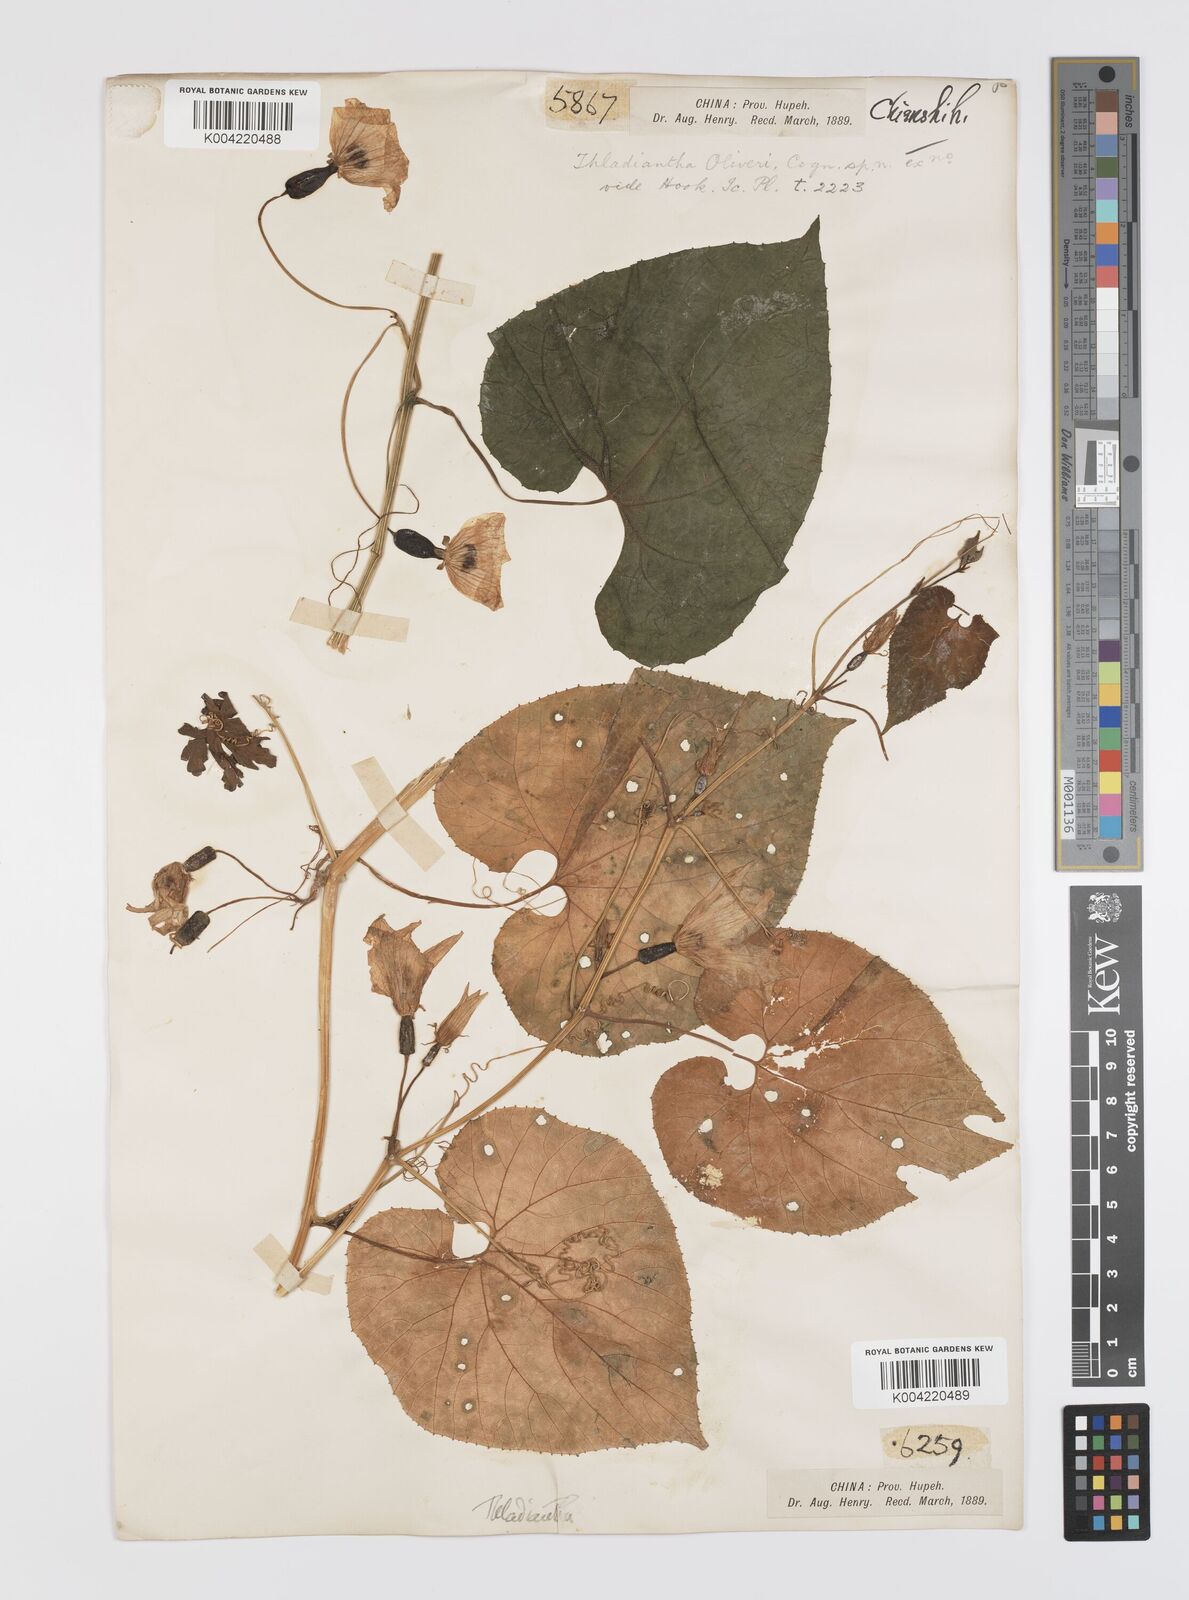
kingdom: Plantae
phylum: Tracheophyta
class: Magnoliopsida
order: Cucurbitales
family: Cucurbitaceae
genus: Thladiantha
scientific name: Thladiantha oliveri
